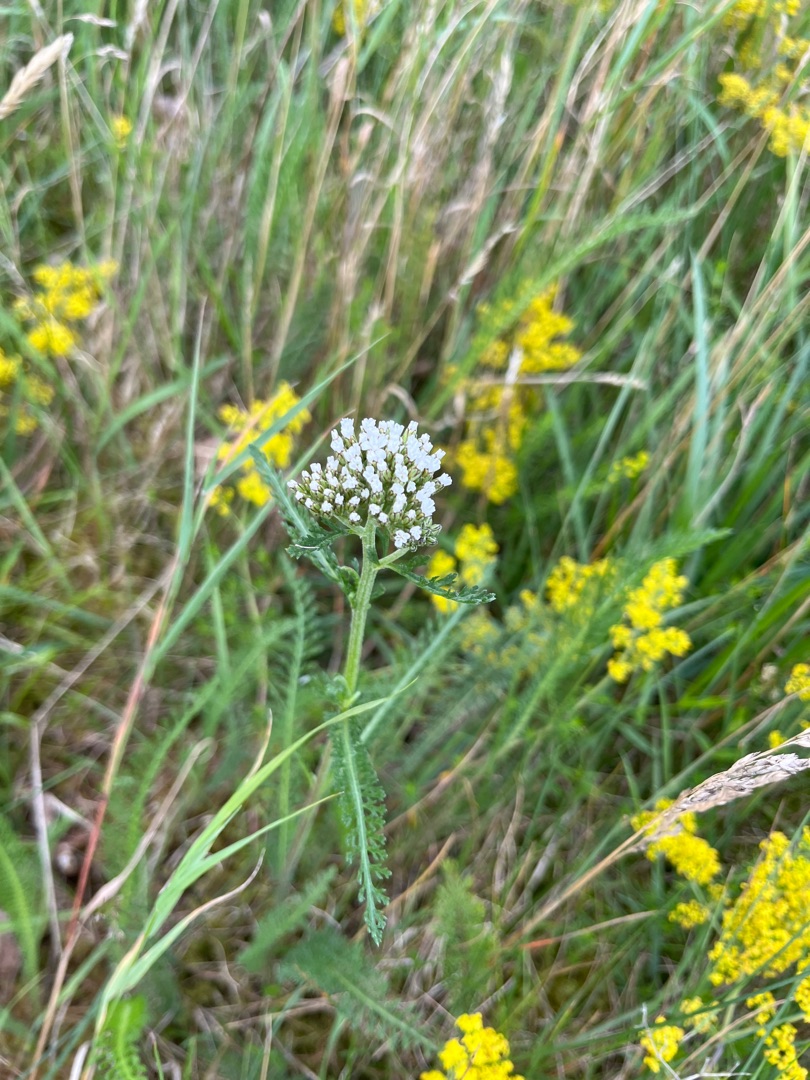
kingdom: Plantae
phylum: Tracheophyta
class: Magnoliopsida
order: Asterales
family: Asteraceae
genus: Achillea
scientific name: Achillea millefolium
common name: Almindelig røllike
